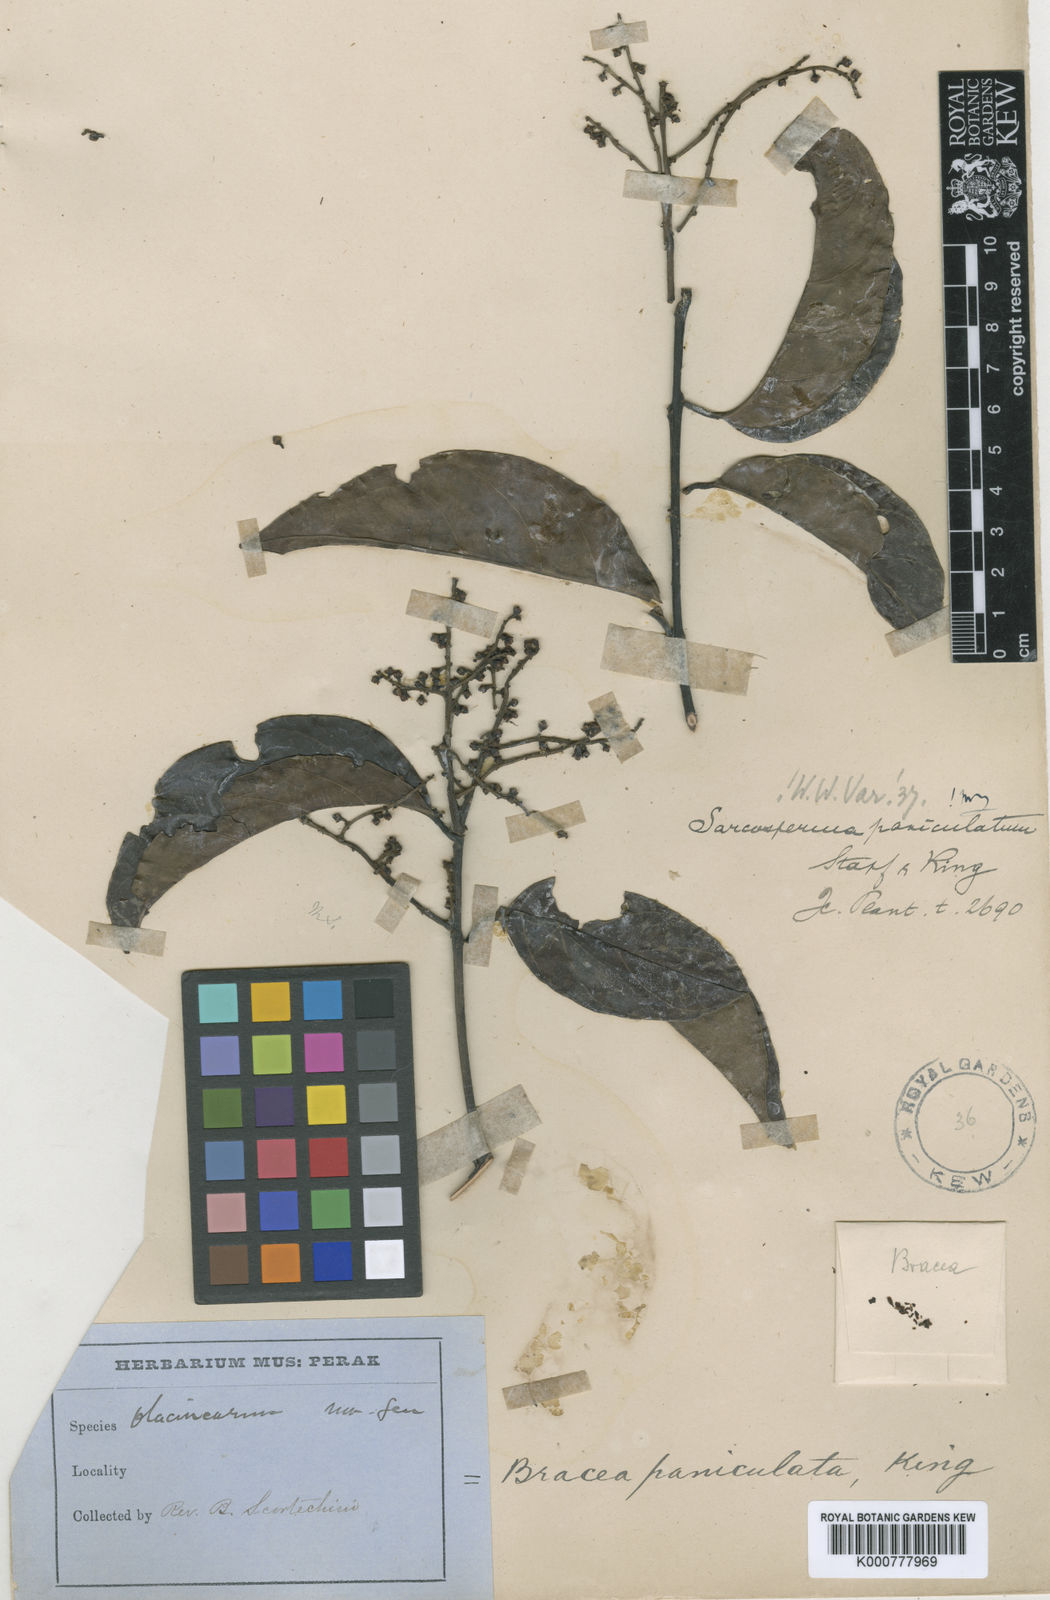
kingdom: Plantae
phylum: Tracheophyta
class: Magnoliopsida
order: Ericales
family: Sapotaceae
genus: Sarcosperma
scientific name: Sarcosperma paniculatum
